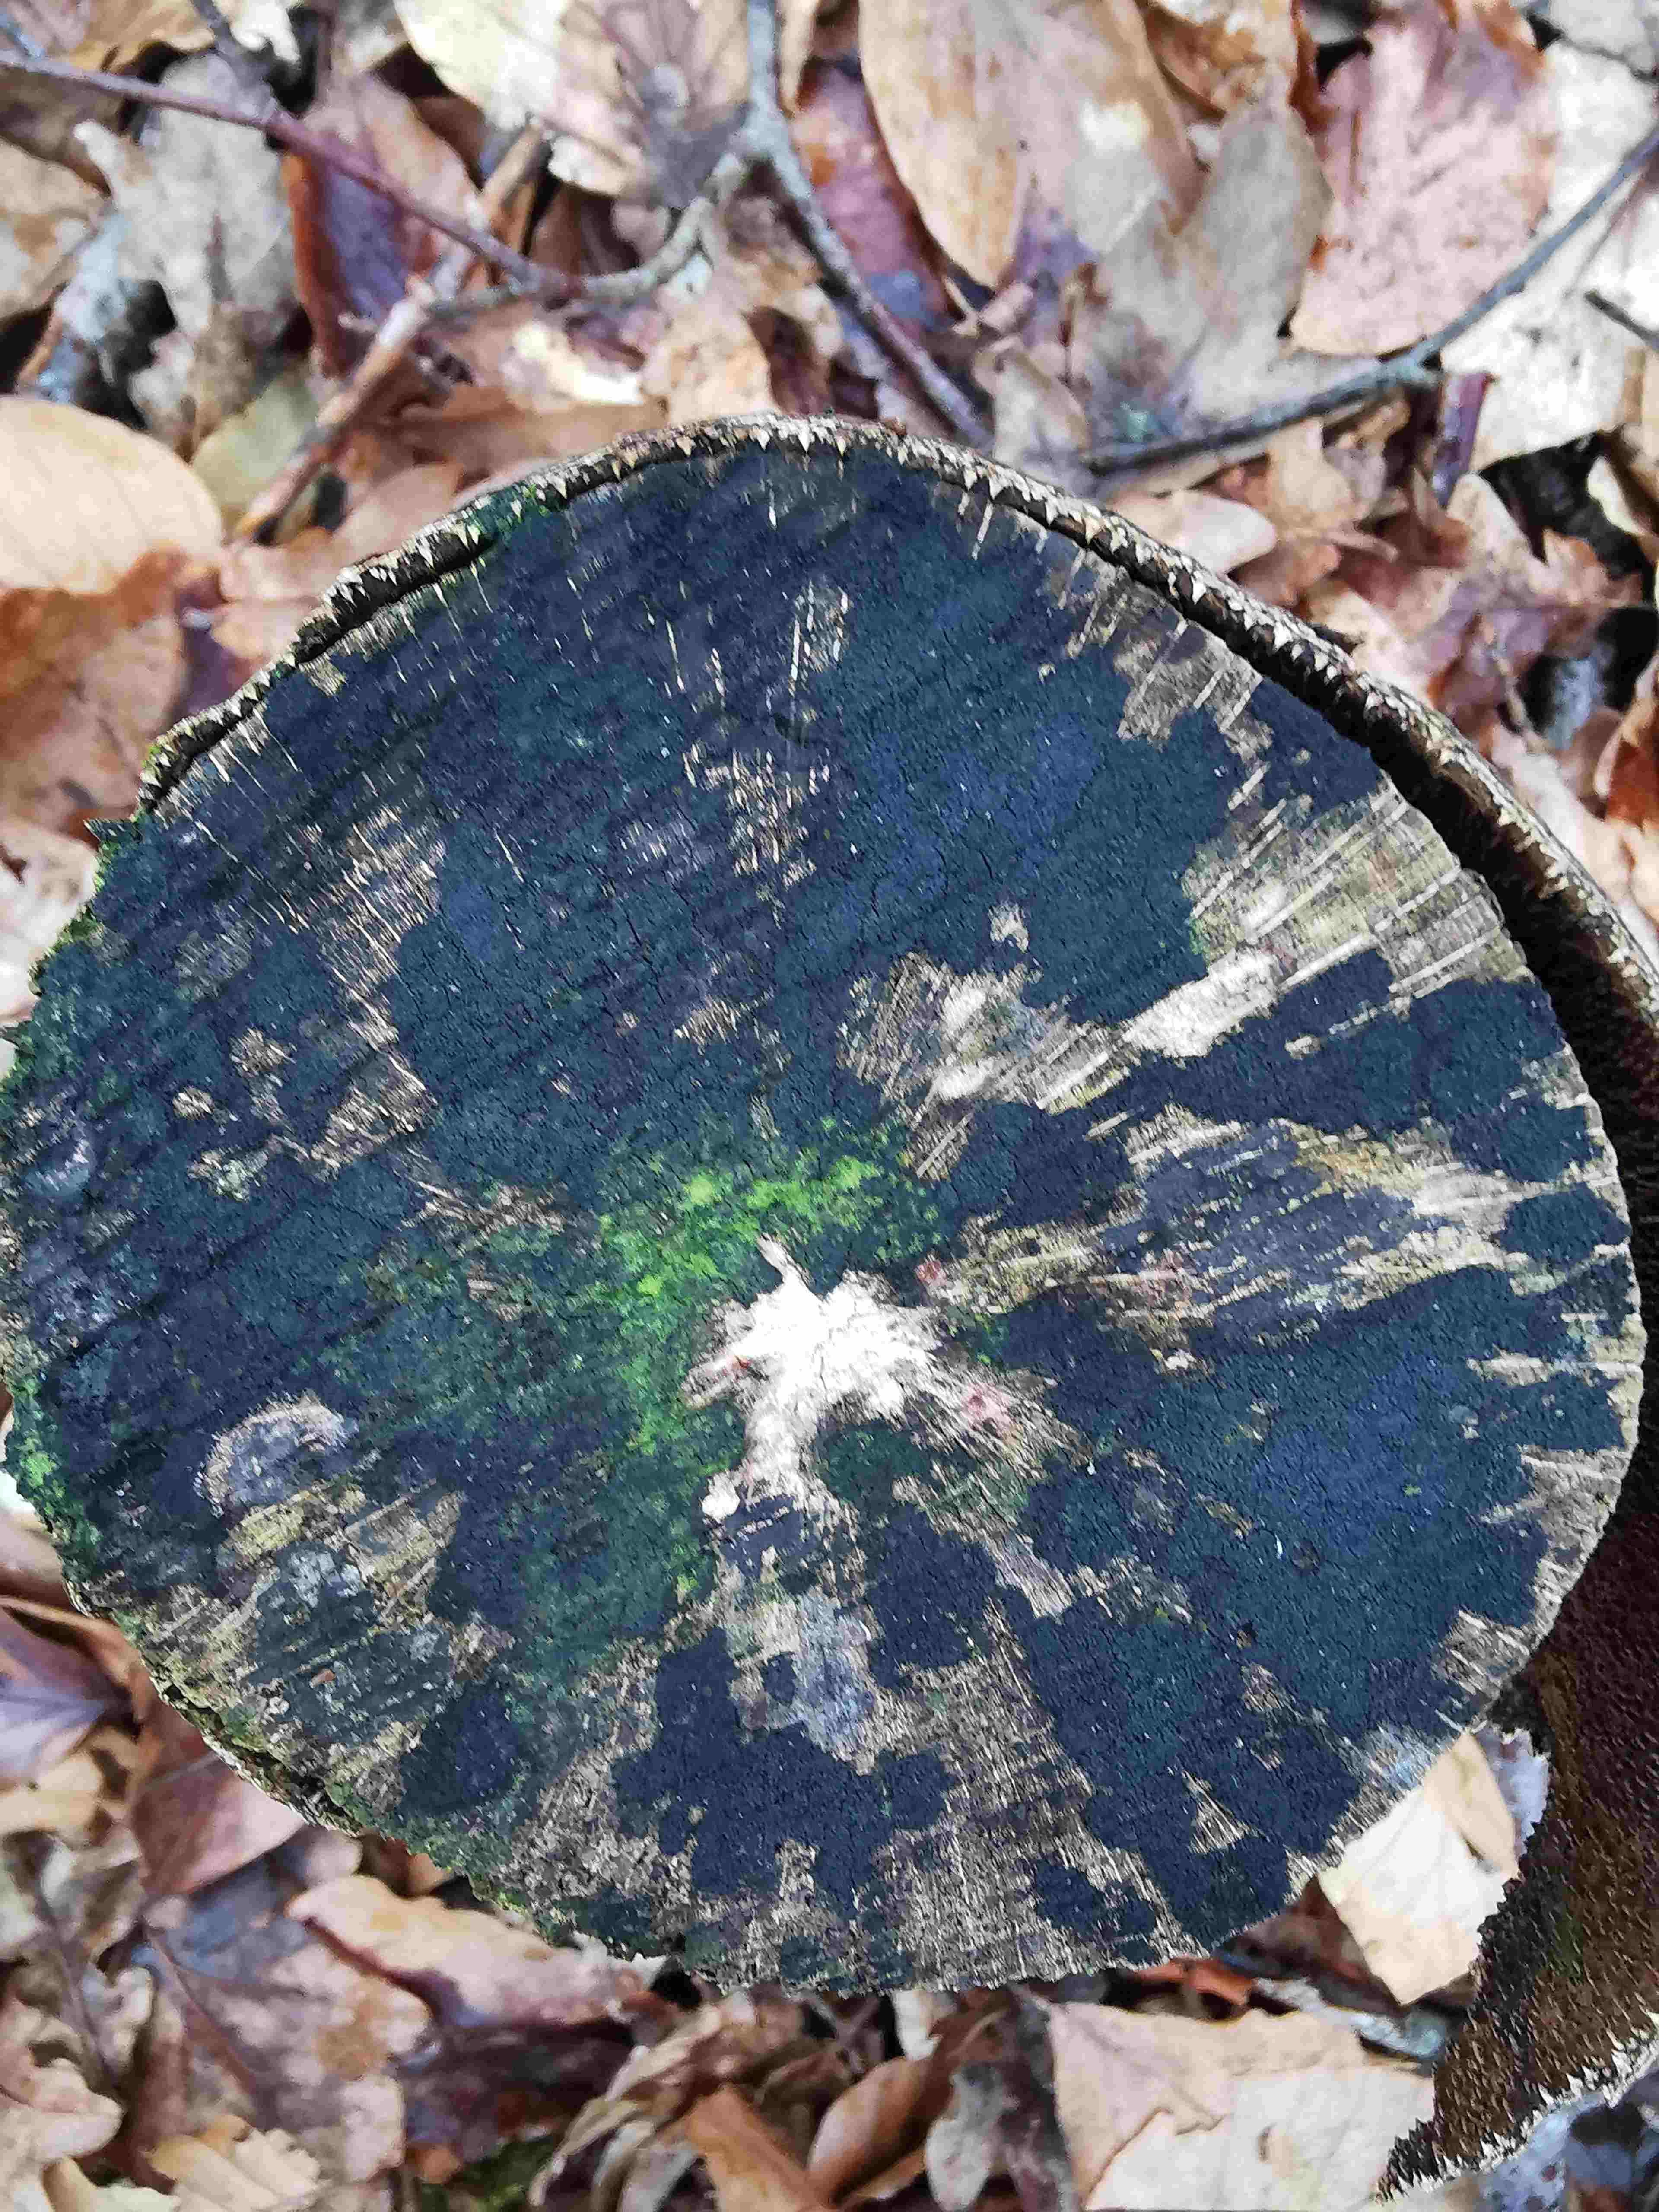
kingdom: Fungi
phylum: Ascomycota
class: Leotiomycetes
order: Helotiales
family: Helotiaceae
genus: Bispora
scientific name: Bispora pallescens
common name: måtte-snitskive
